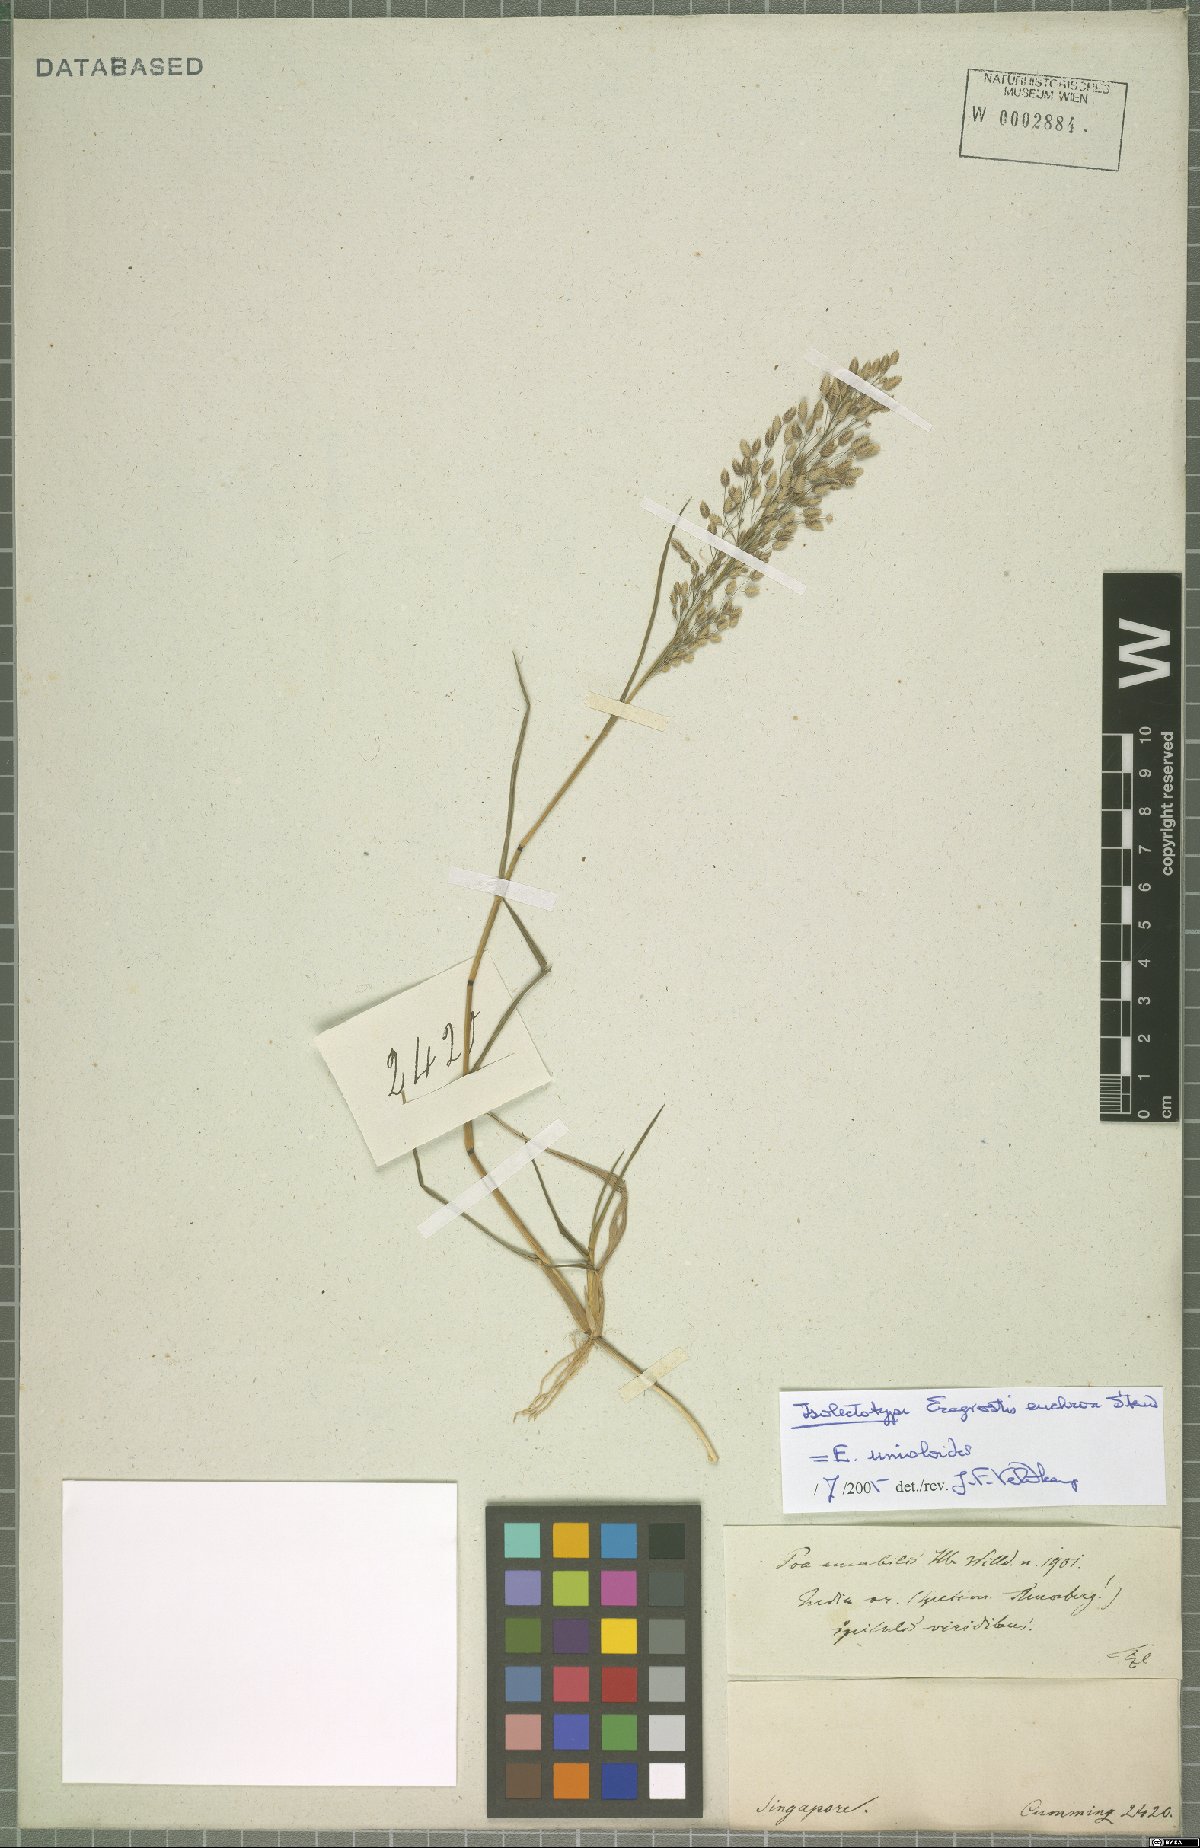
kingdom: Plantae
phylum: Tracheophyta
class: Liliopsida
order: Poales
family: Poaceae
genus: Eragrostis
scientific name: Eragrostis unioloides
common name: Chinese lovegrass
